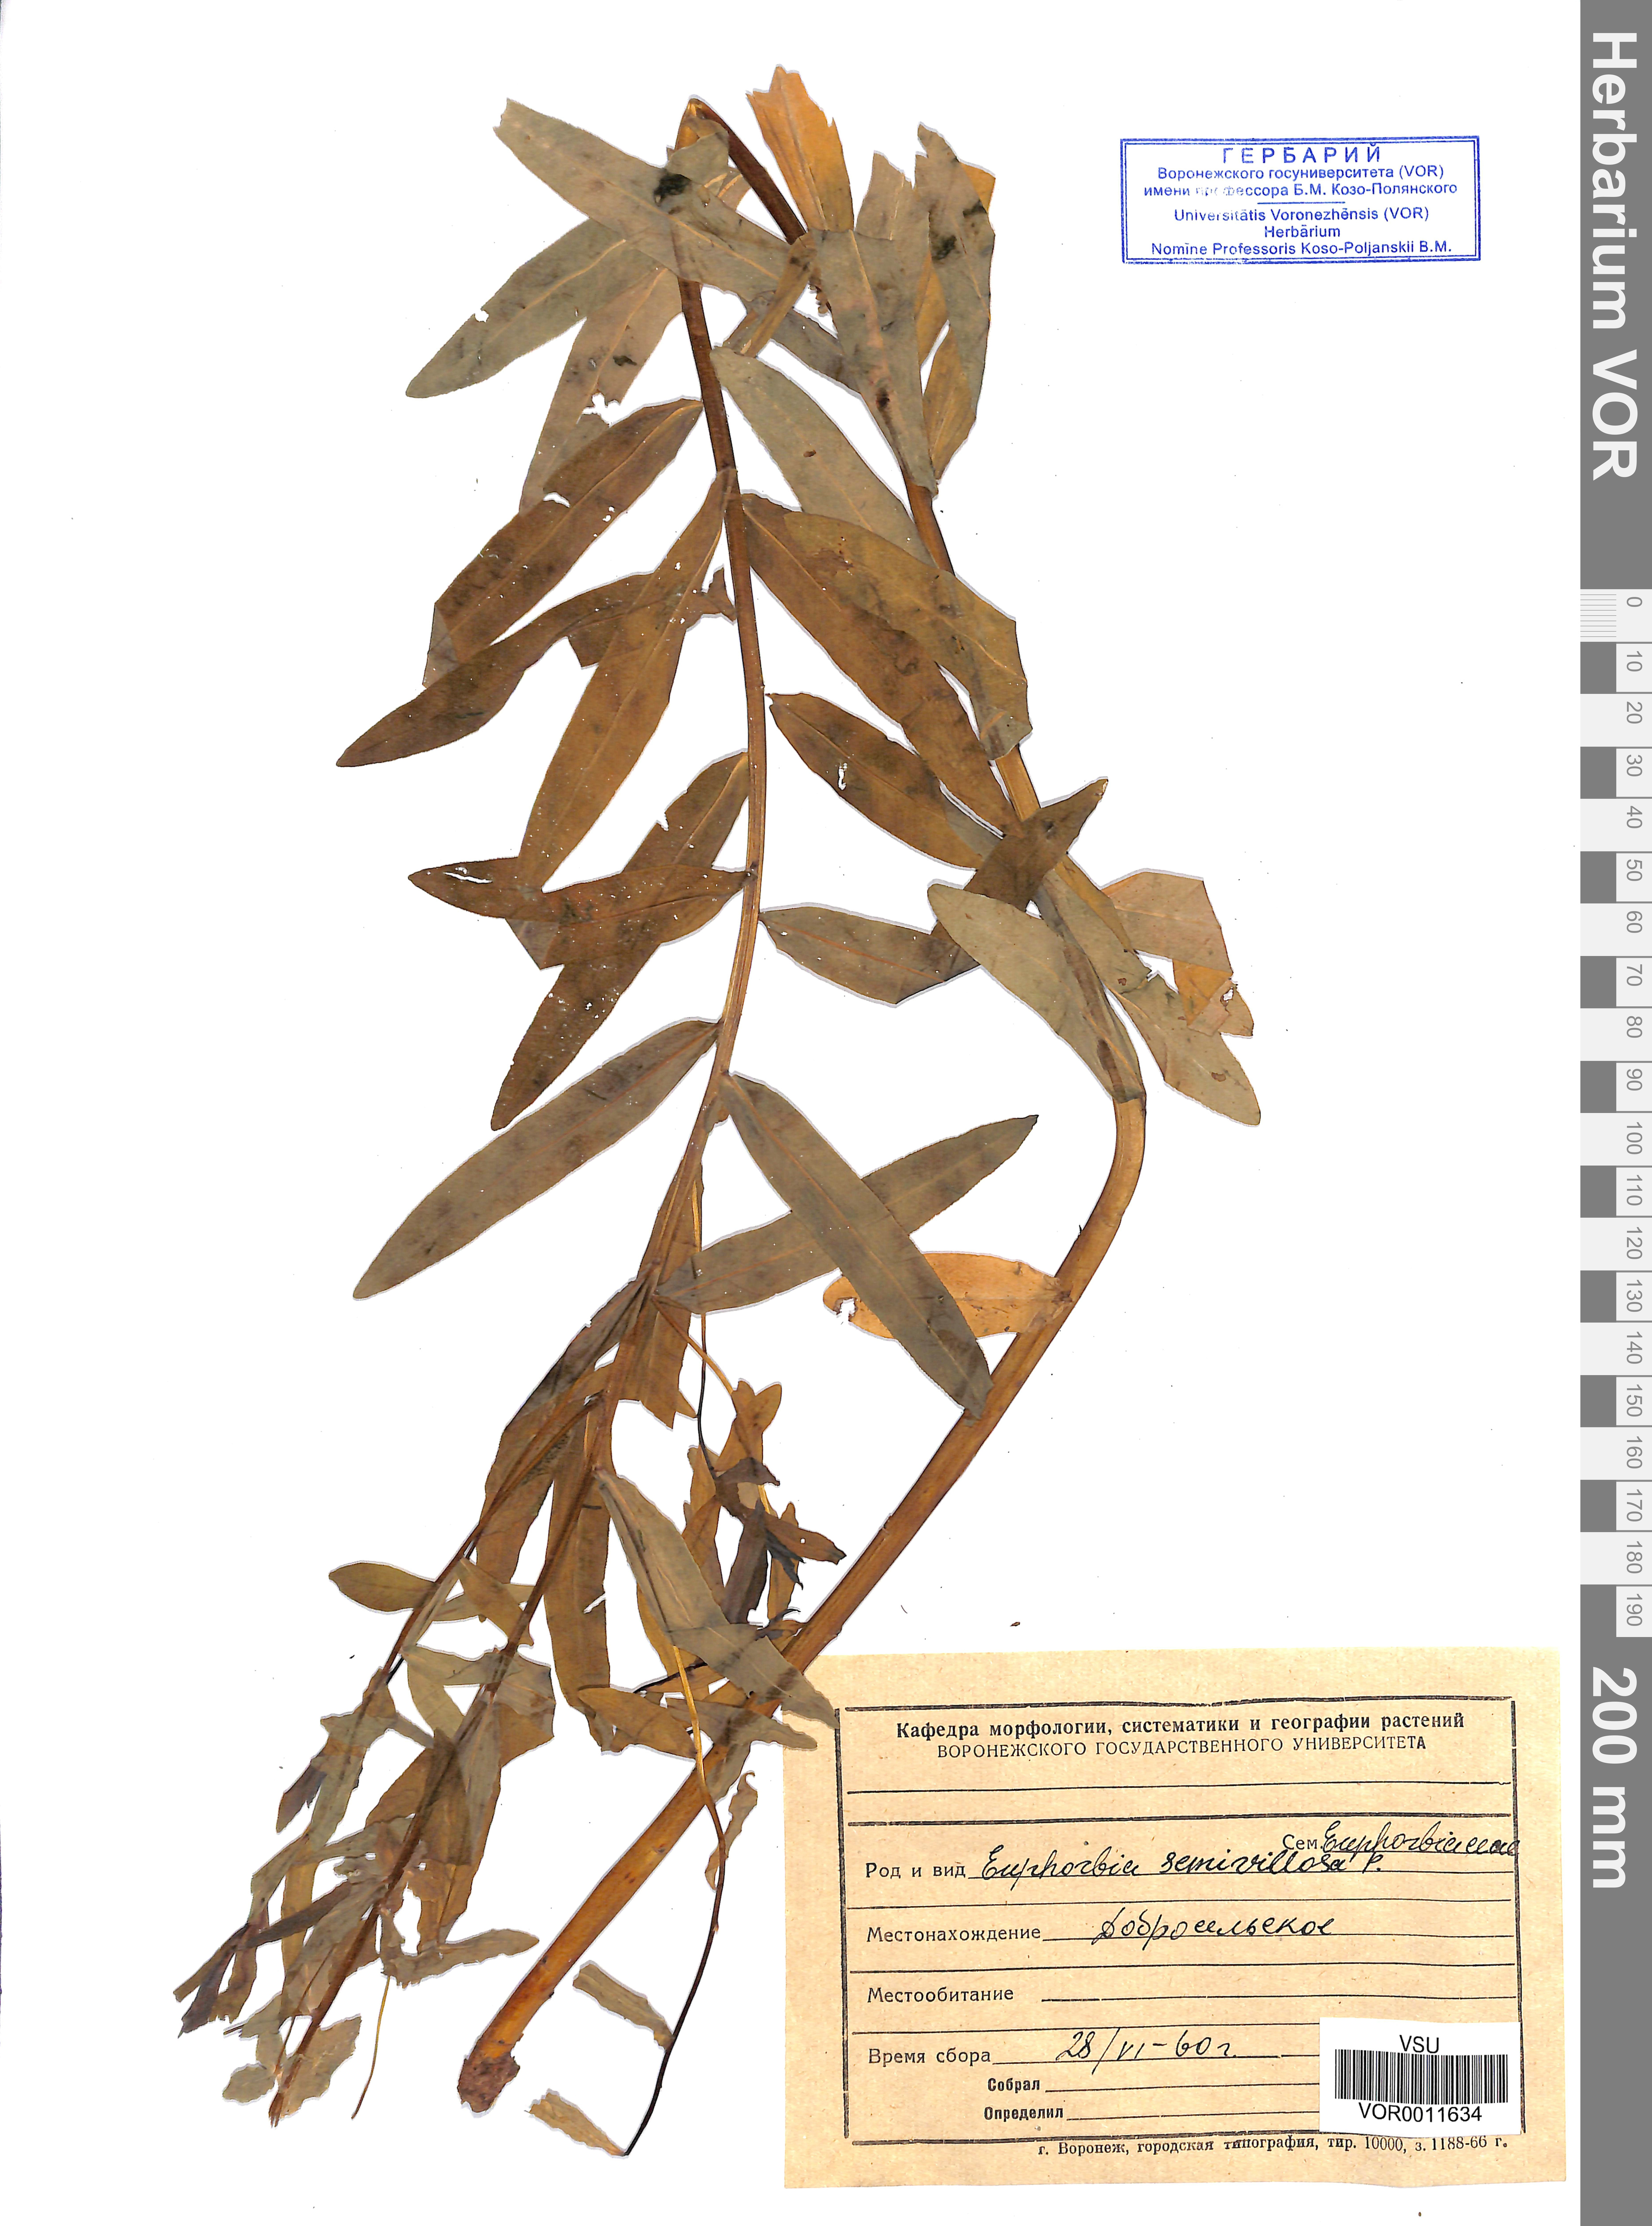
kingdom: Plantae
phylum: Tracheophyta
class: Magnoliopsida
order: Malpighiales
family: Euphorbiaceae
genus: Euphorbia
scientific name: Euphorbia semivillosa
